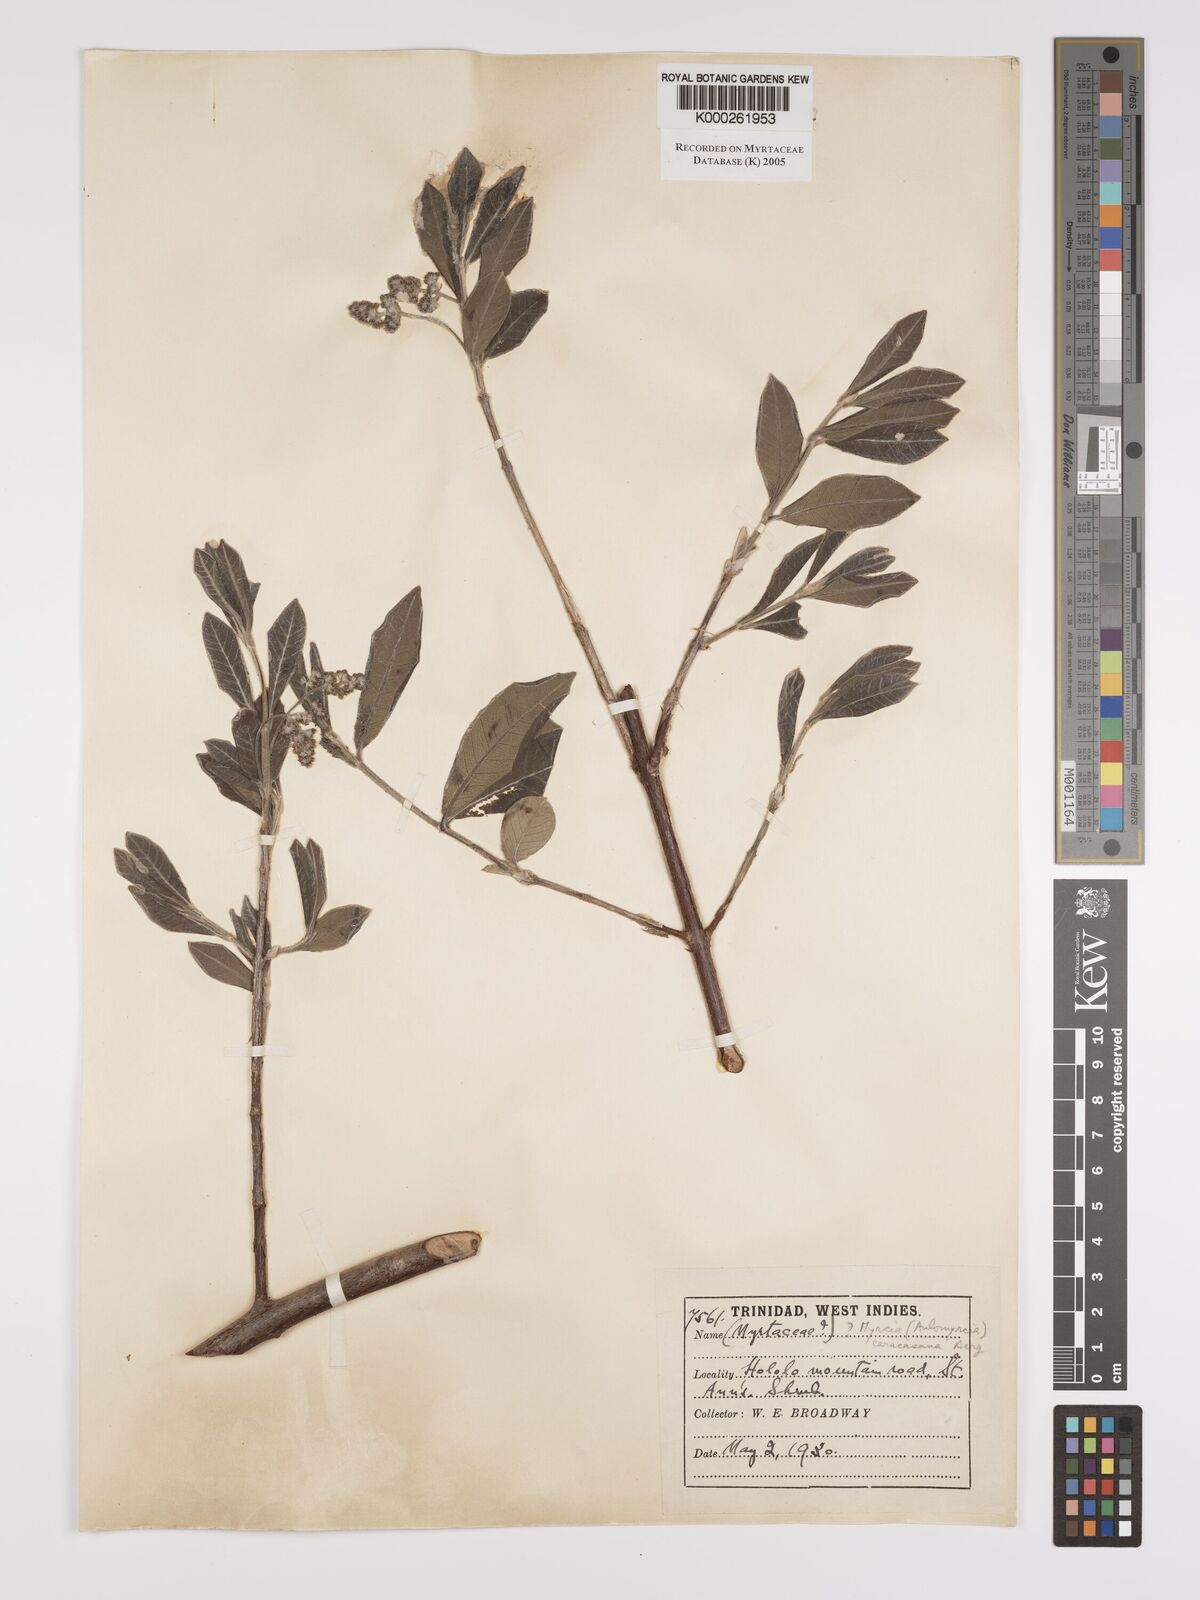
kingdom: Plantae
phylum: Tracheophyta
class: Magnoliopsida
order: Myrtales
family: Myrtaceae
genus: Myrcia
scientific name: Myrcia tomentosa
